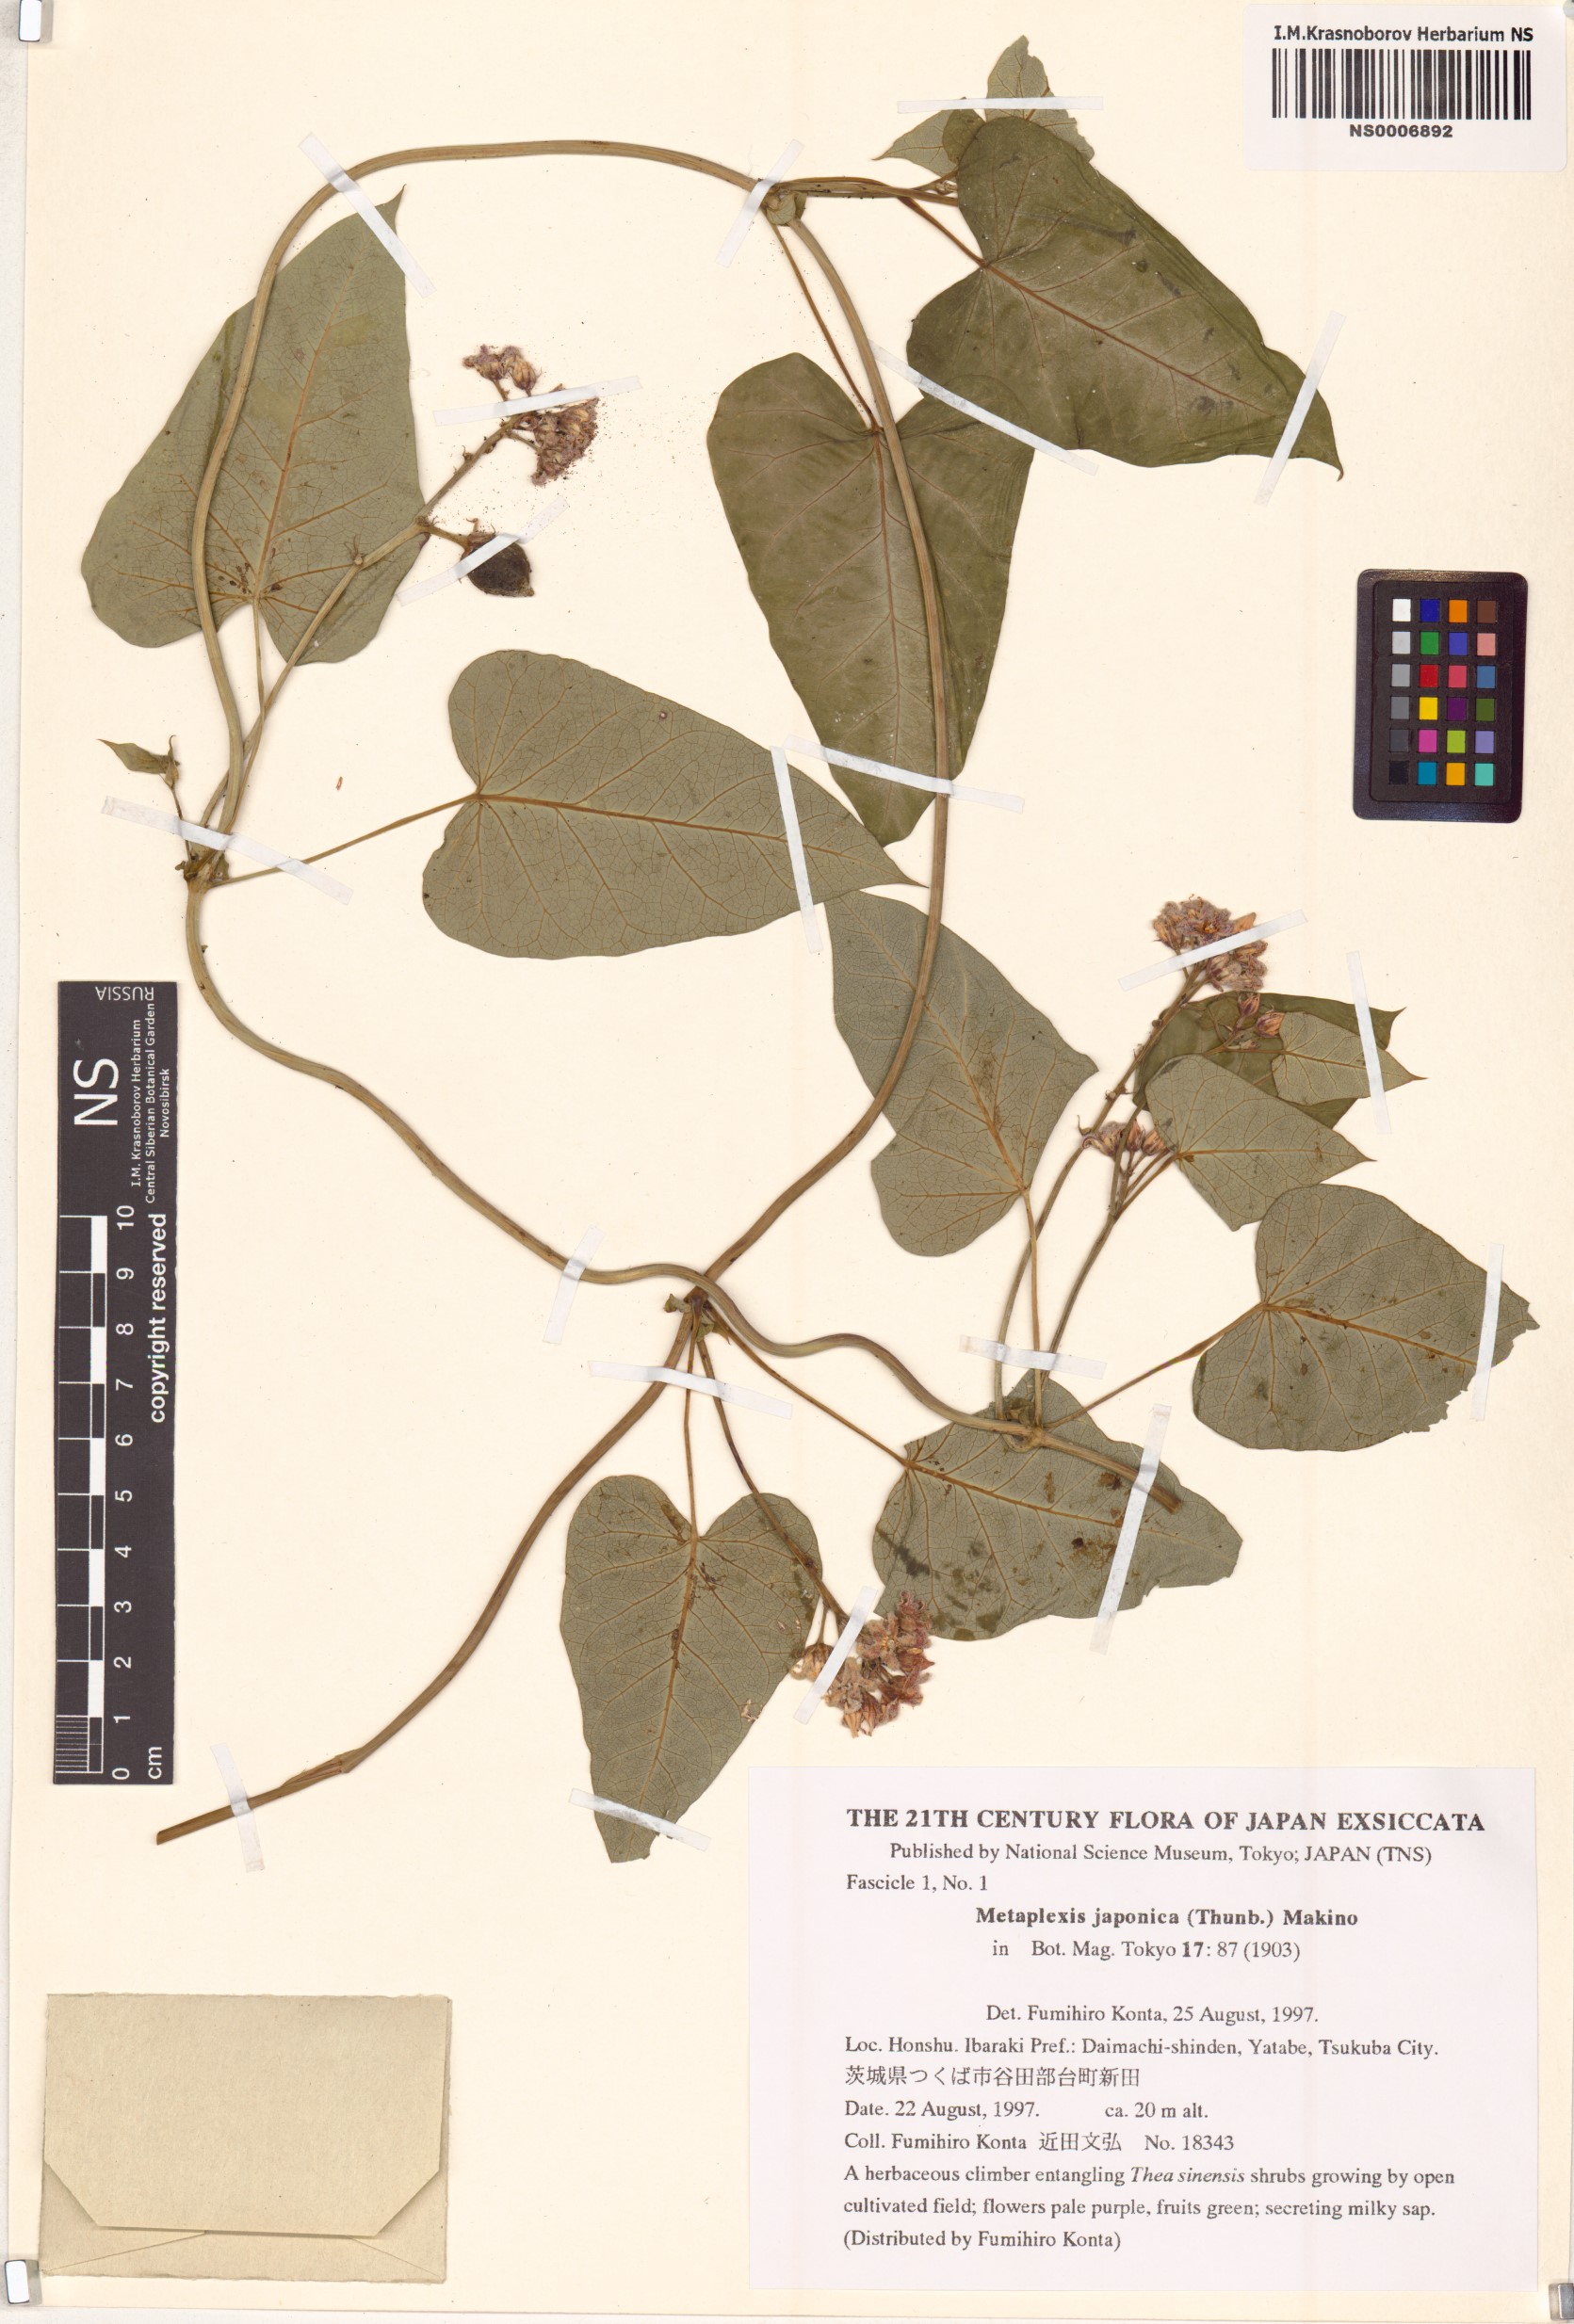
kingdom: Plantae
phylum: Tracheophyta
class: Magnoliopsida
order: Gentianales
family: Apocynaceae
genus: Cynanchum
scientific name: Cynanchum rostellatum
